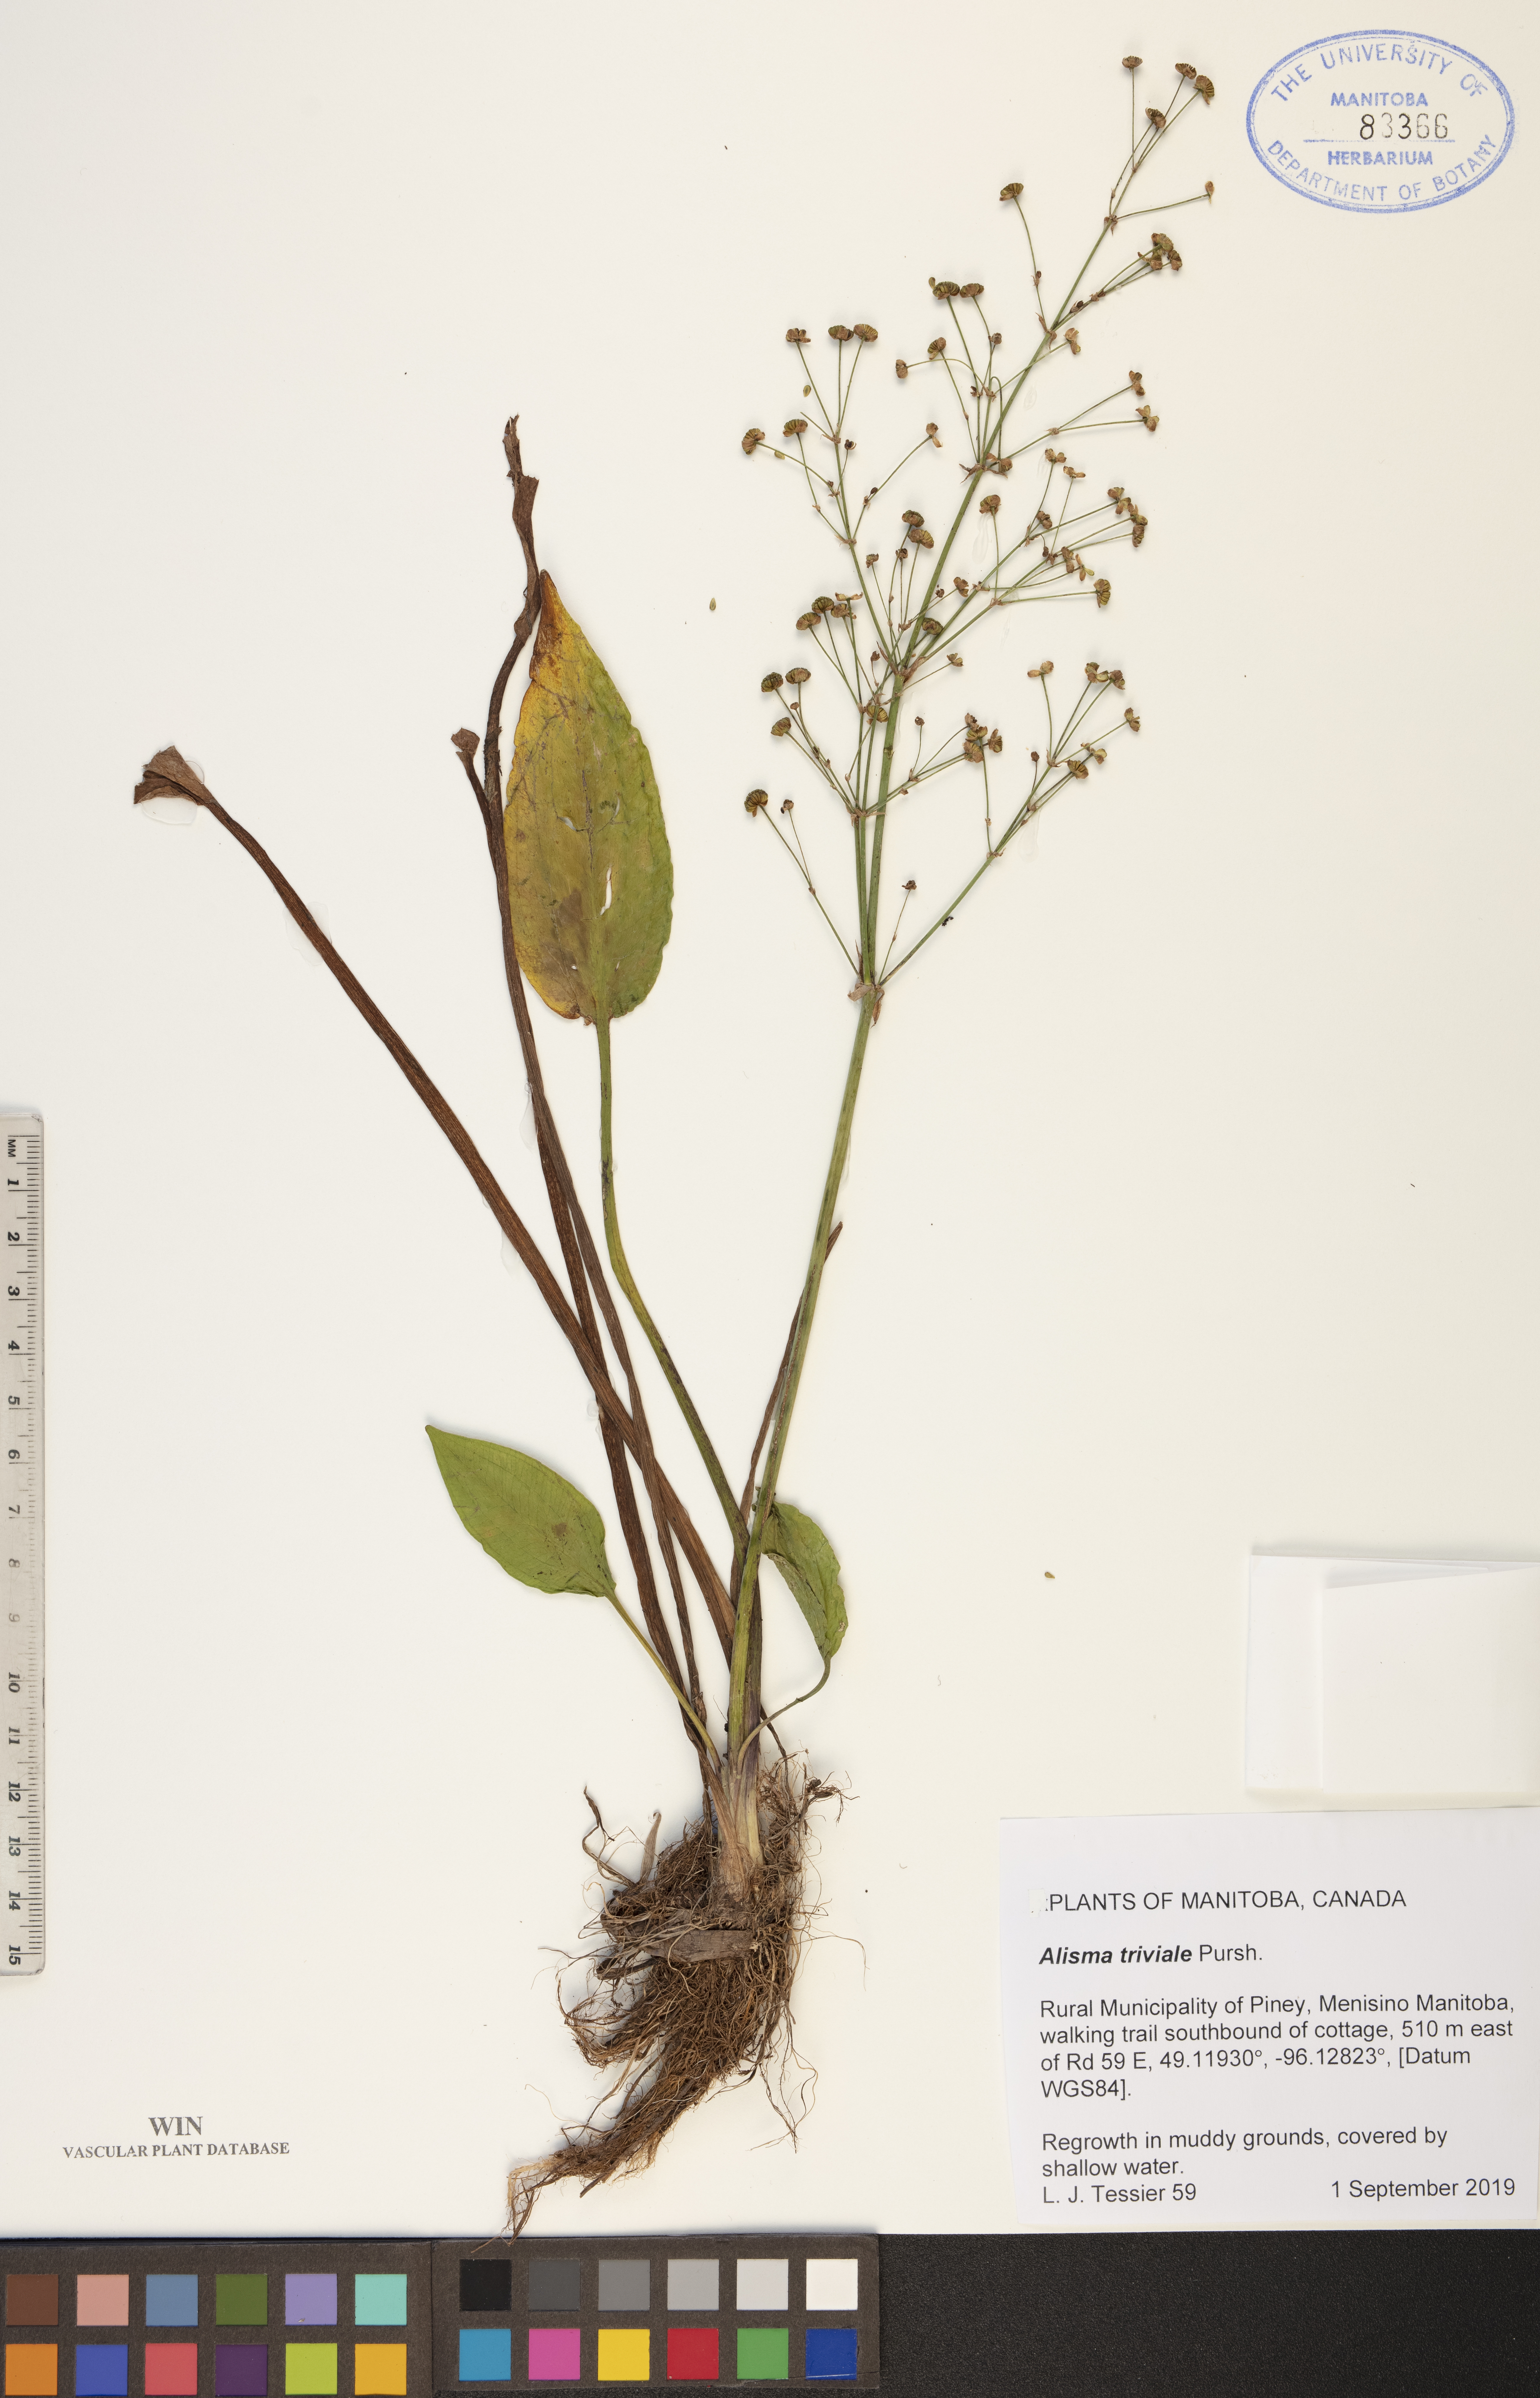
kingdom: Plantae
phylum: Tracheophyta
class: Liliopsida
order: Alismatales
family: Alismataceae
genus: Alisma
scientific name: Alisma triviale
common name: Northern water-plantain
